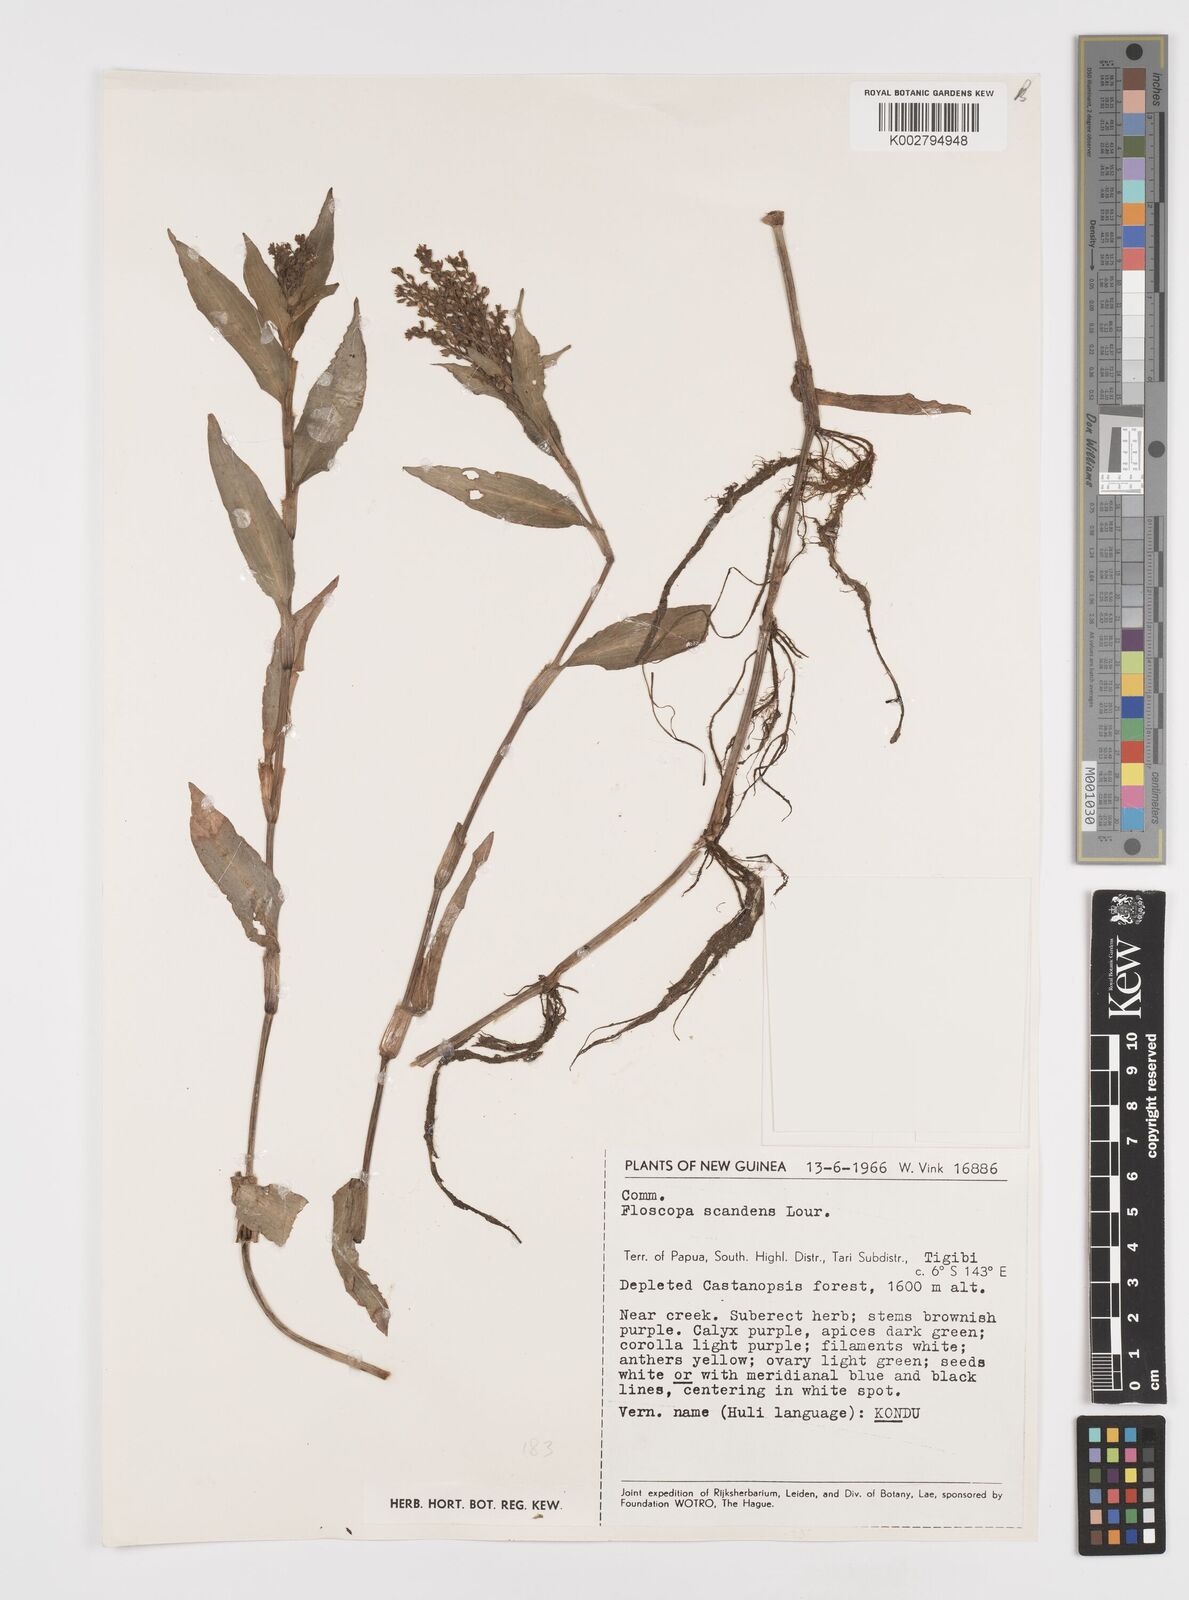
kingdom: Plantae
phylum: Tracheophyta
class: Liliopsida
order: Commelinales
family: Commelinaceae
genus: Floscopa
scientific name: Floscopa scandens
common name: Climbing flower cup
